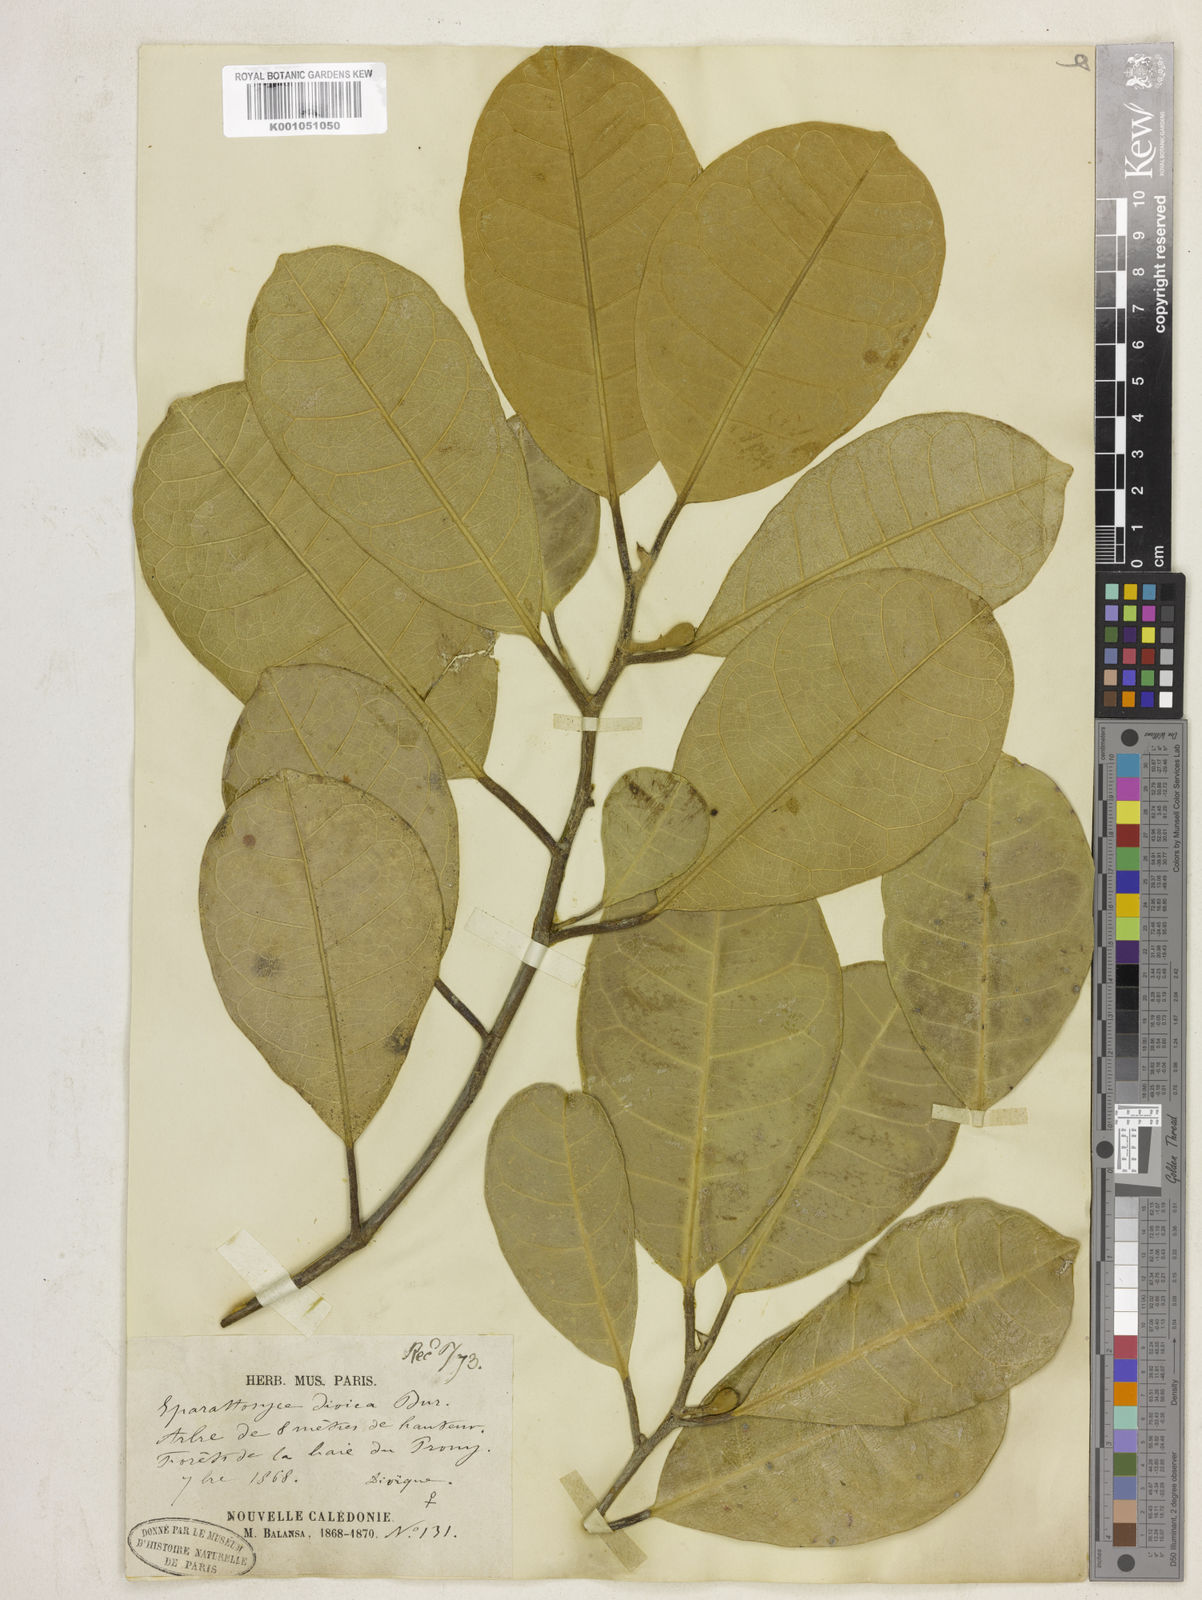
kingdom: Plantae
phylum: Tracheophyta
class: Magnoliopsida
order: Rosales
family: Moraceae
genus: Sparattosyce
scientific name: Sparattosyce dioica
